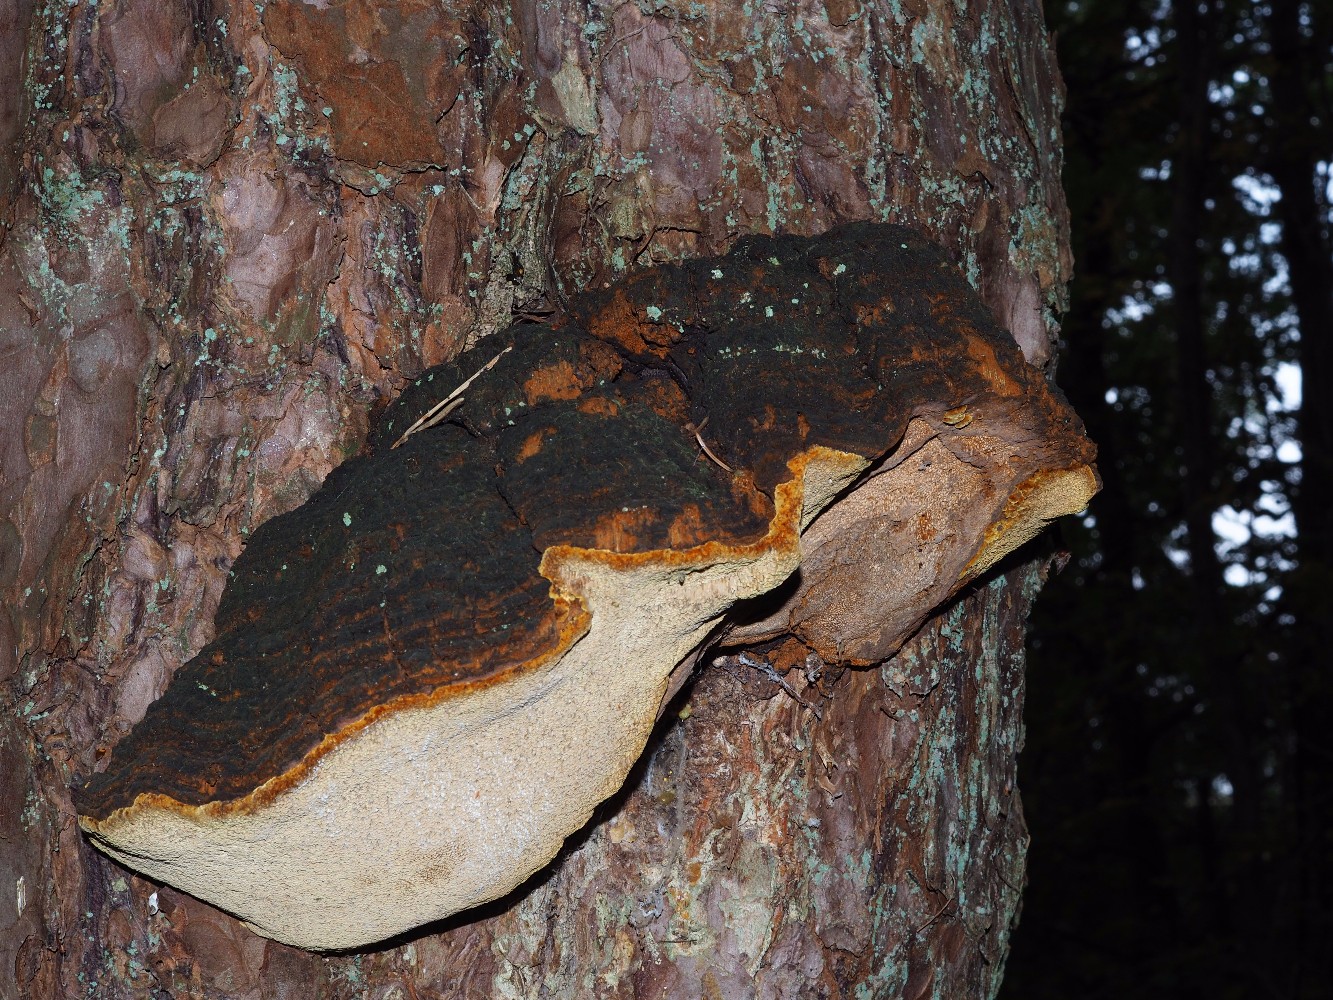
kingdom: Fungi
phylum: Basidiomycota
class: Agaricomycetes
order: Hymenochaetales
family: Hymenochaetaceae
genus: Porodaedalea
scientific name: Porodaedalea pini
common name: fyrre-ildporesvamp
